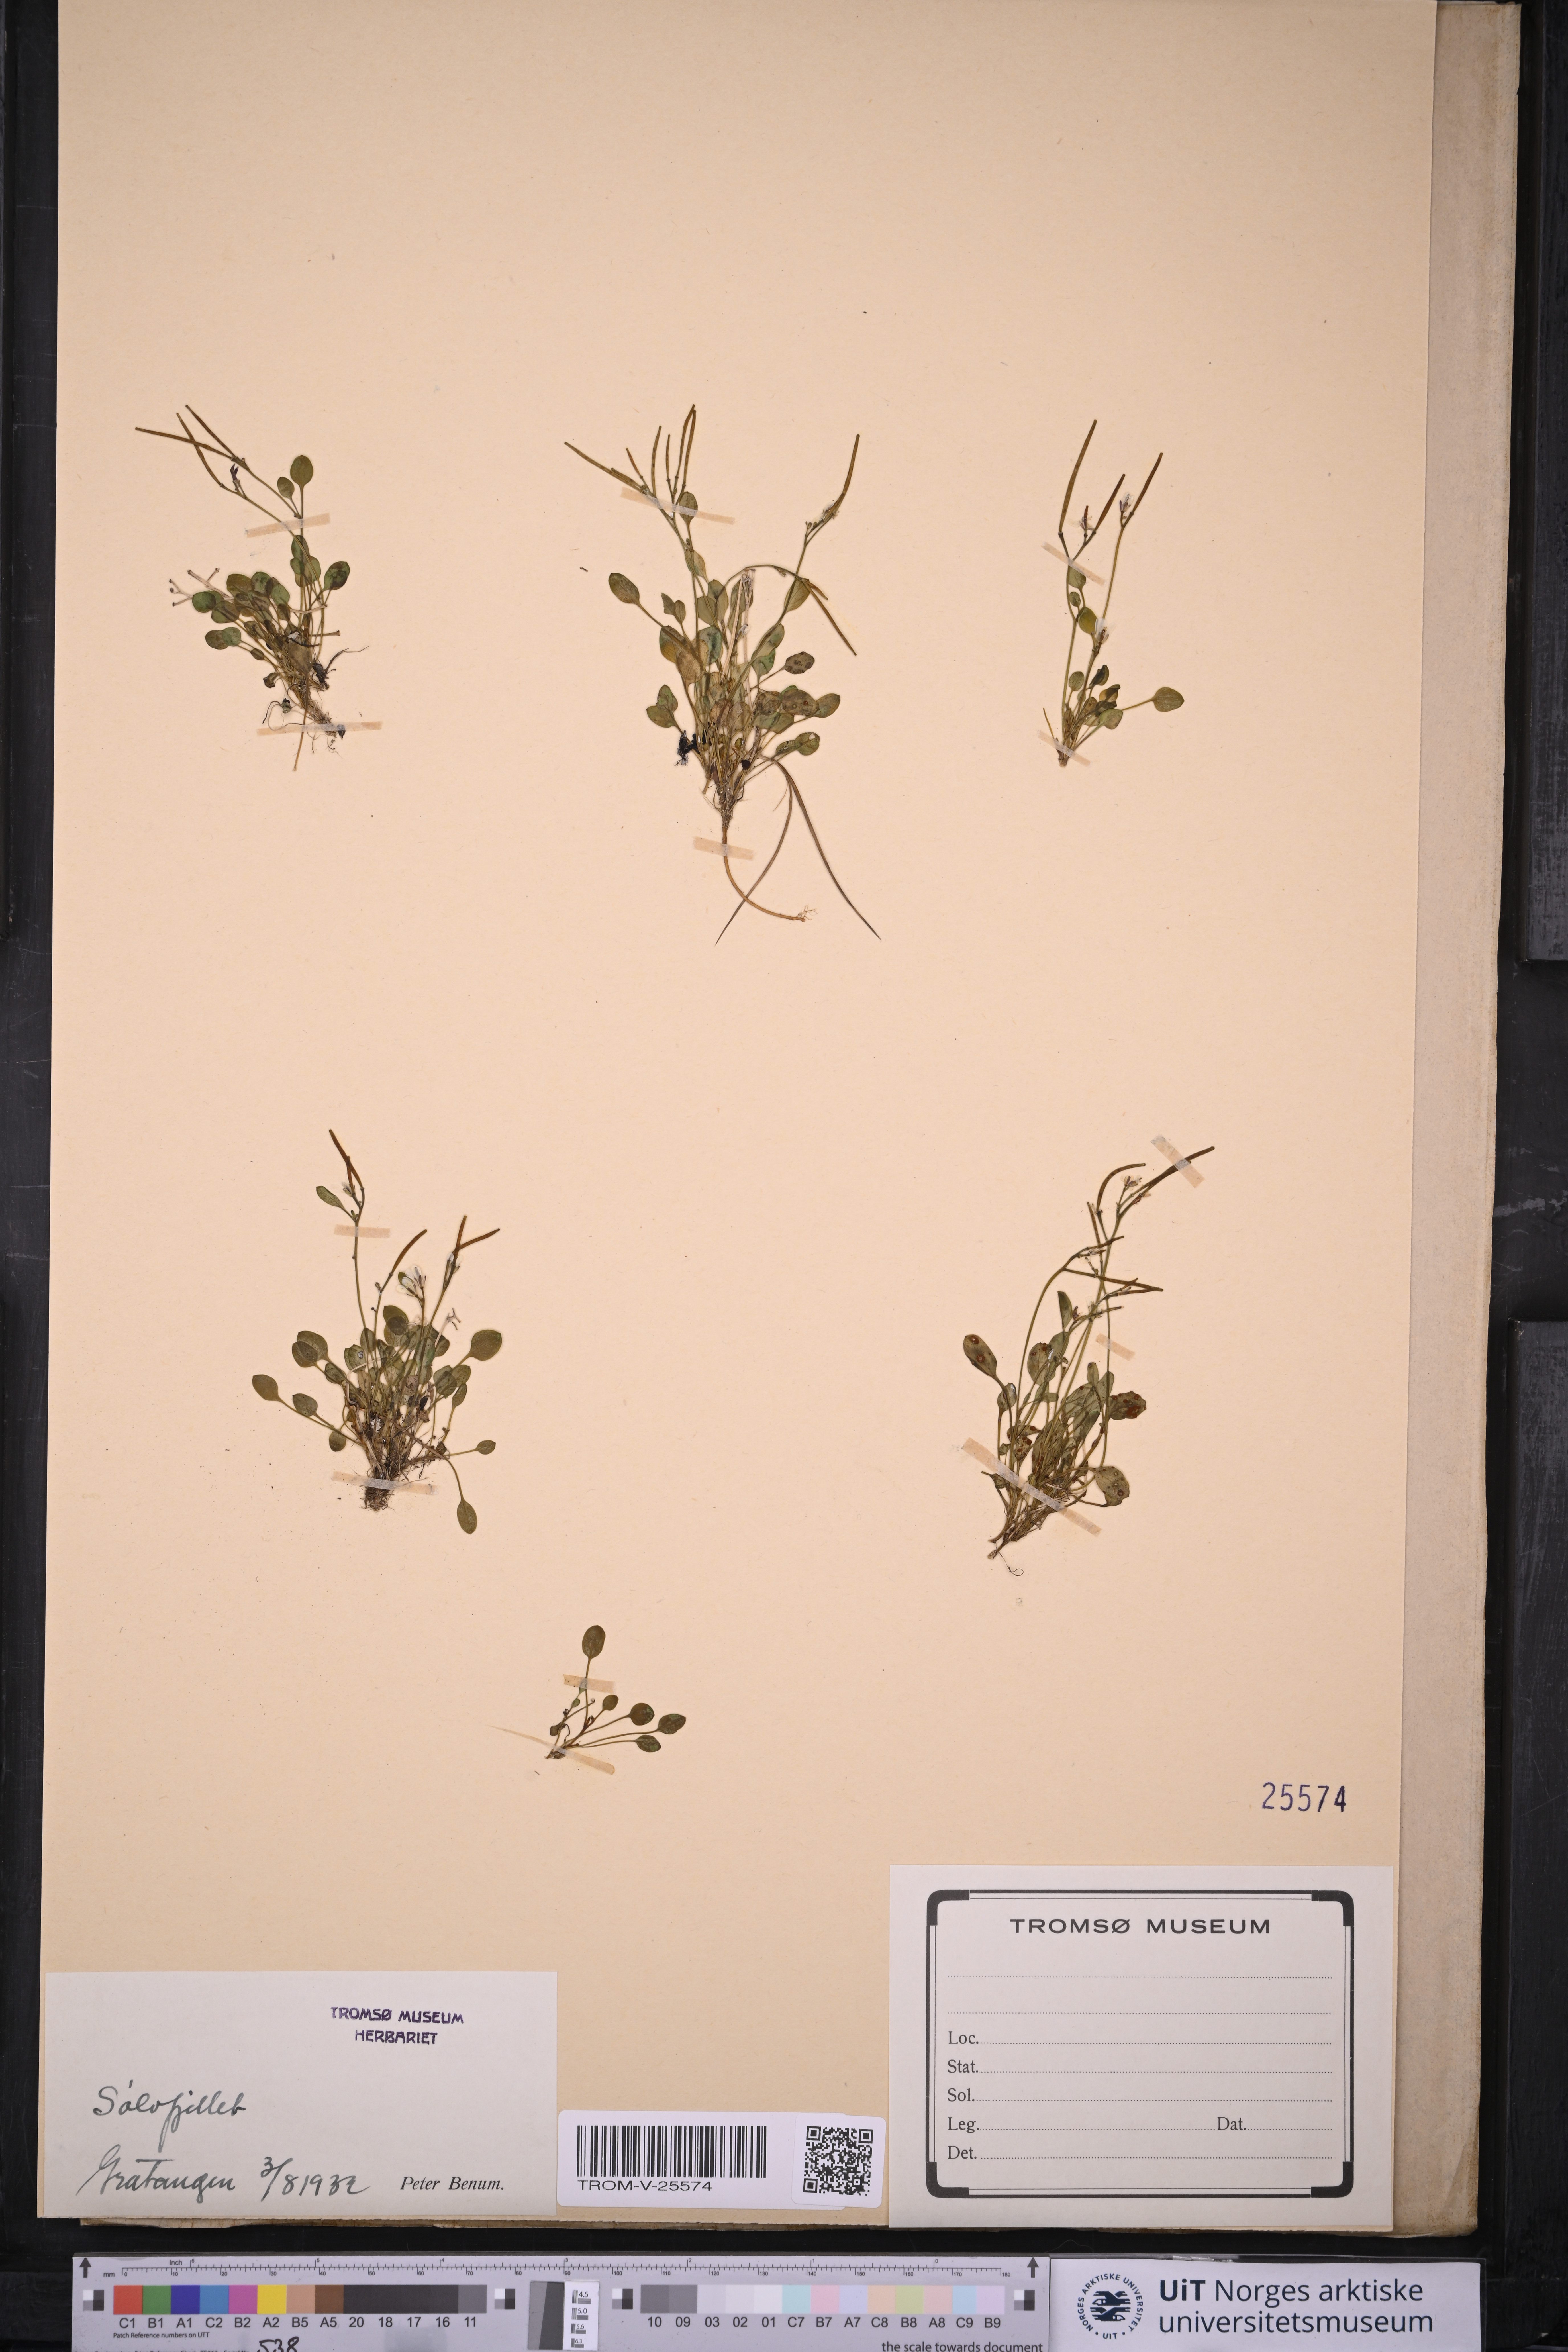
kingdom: Plantae
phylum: Tracheophyta
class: Magnoliopsida
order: Brassicales
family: Brassicaceae
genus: Cardamine
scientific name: Cardamine bellidifolia
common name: Alpine bittercress
